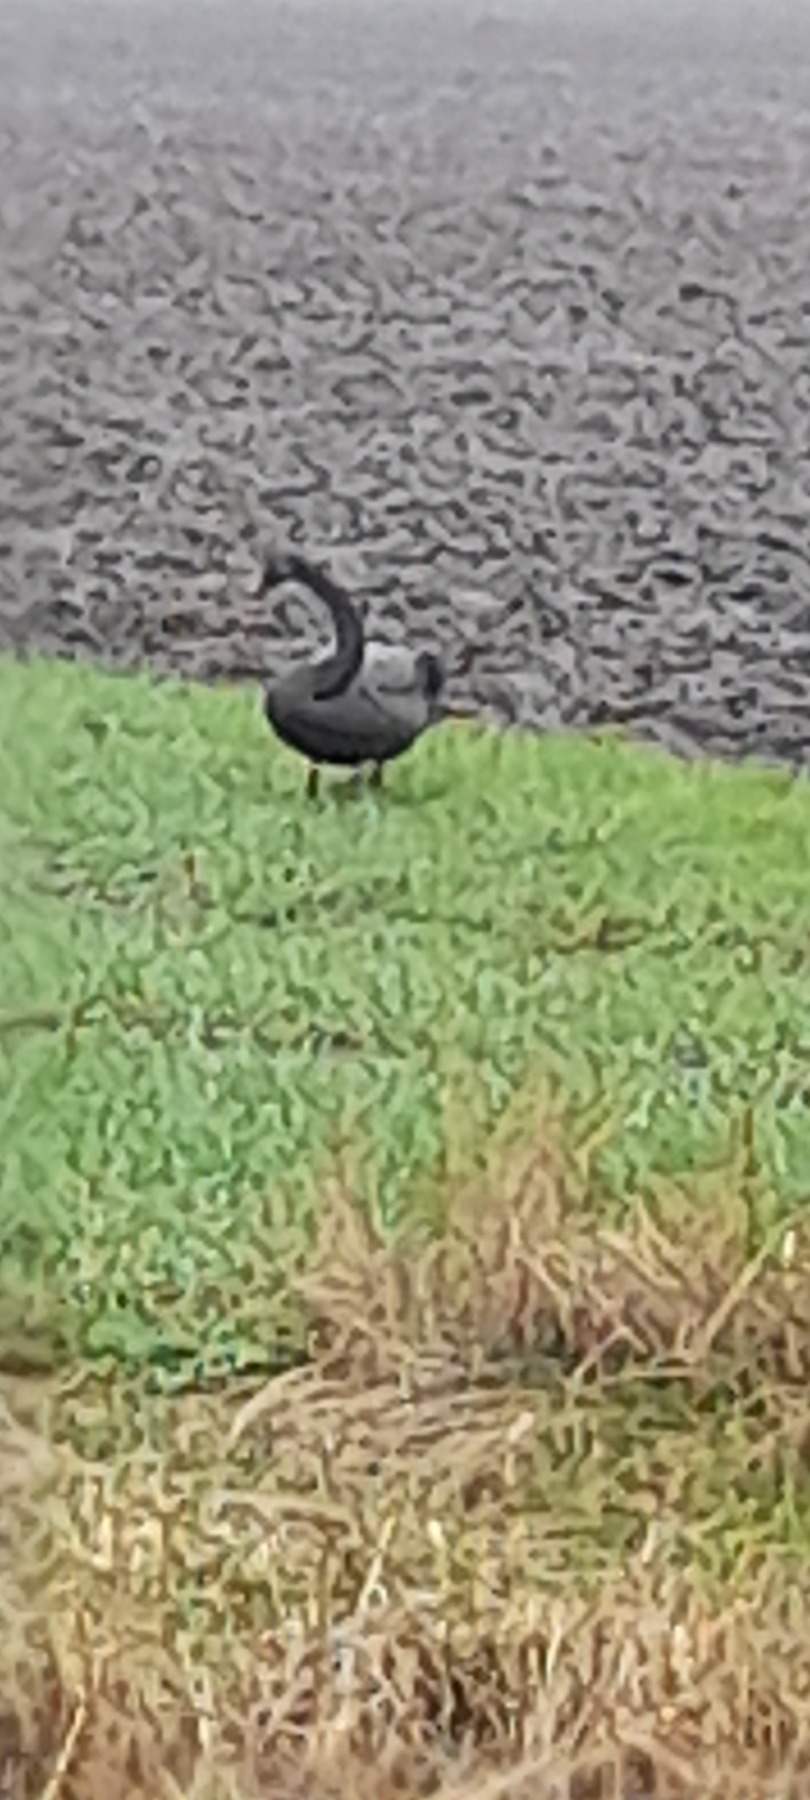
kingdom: Animalia
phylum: Chordata
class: Aves
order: Anseriformes
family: Anatidae
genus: Cygnus
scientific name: Cygnus atratus
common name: Sortsvane
